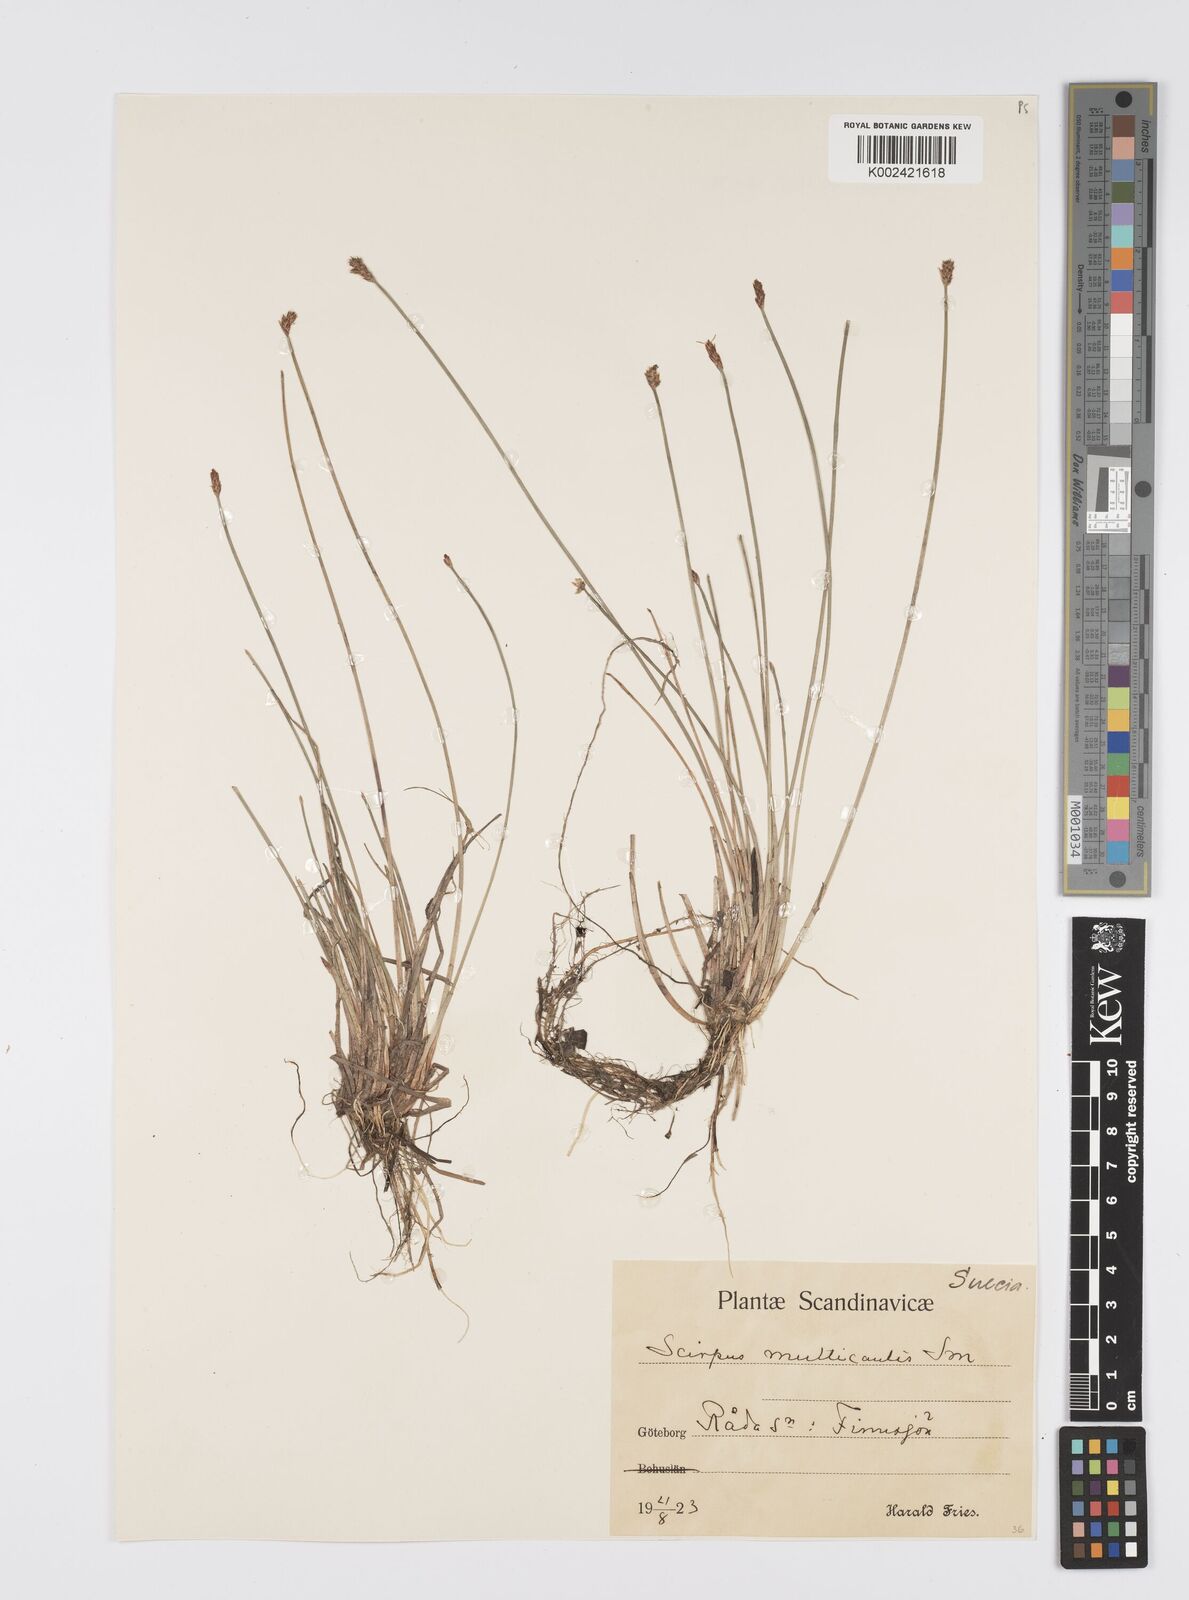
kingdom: Plantae
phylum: Tracheophyta
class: Liliopsida
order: Poales
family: Cyperaceae
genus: Eleocharis
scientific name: Eleocharis multicaulis
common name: Many-stalked spike-rush
